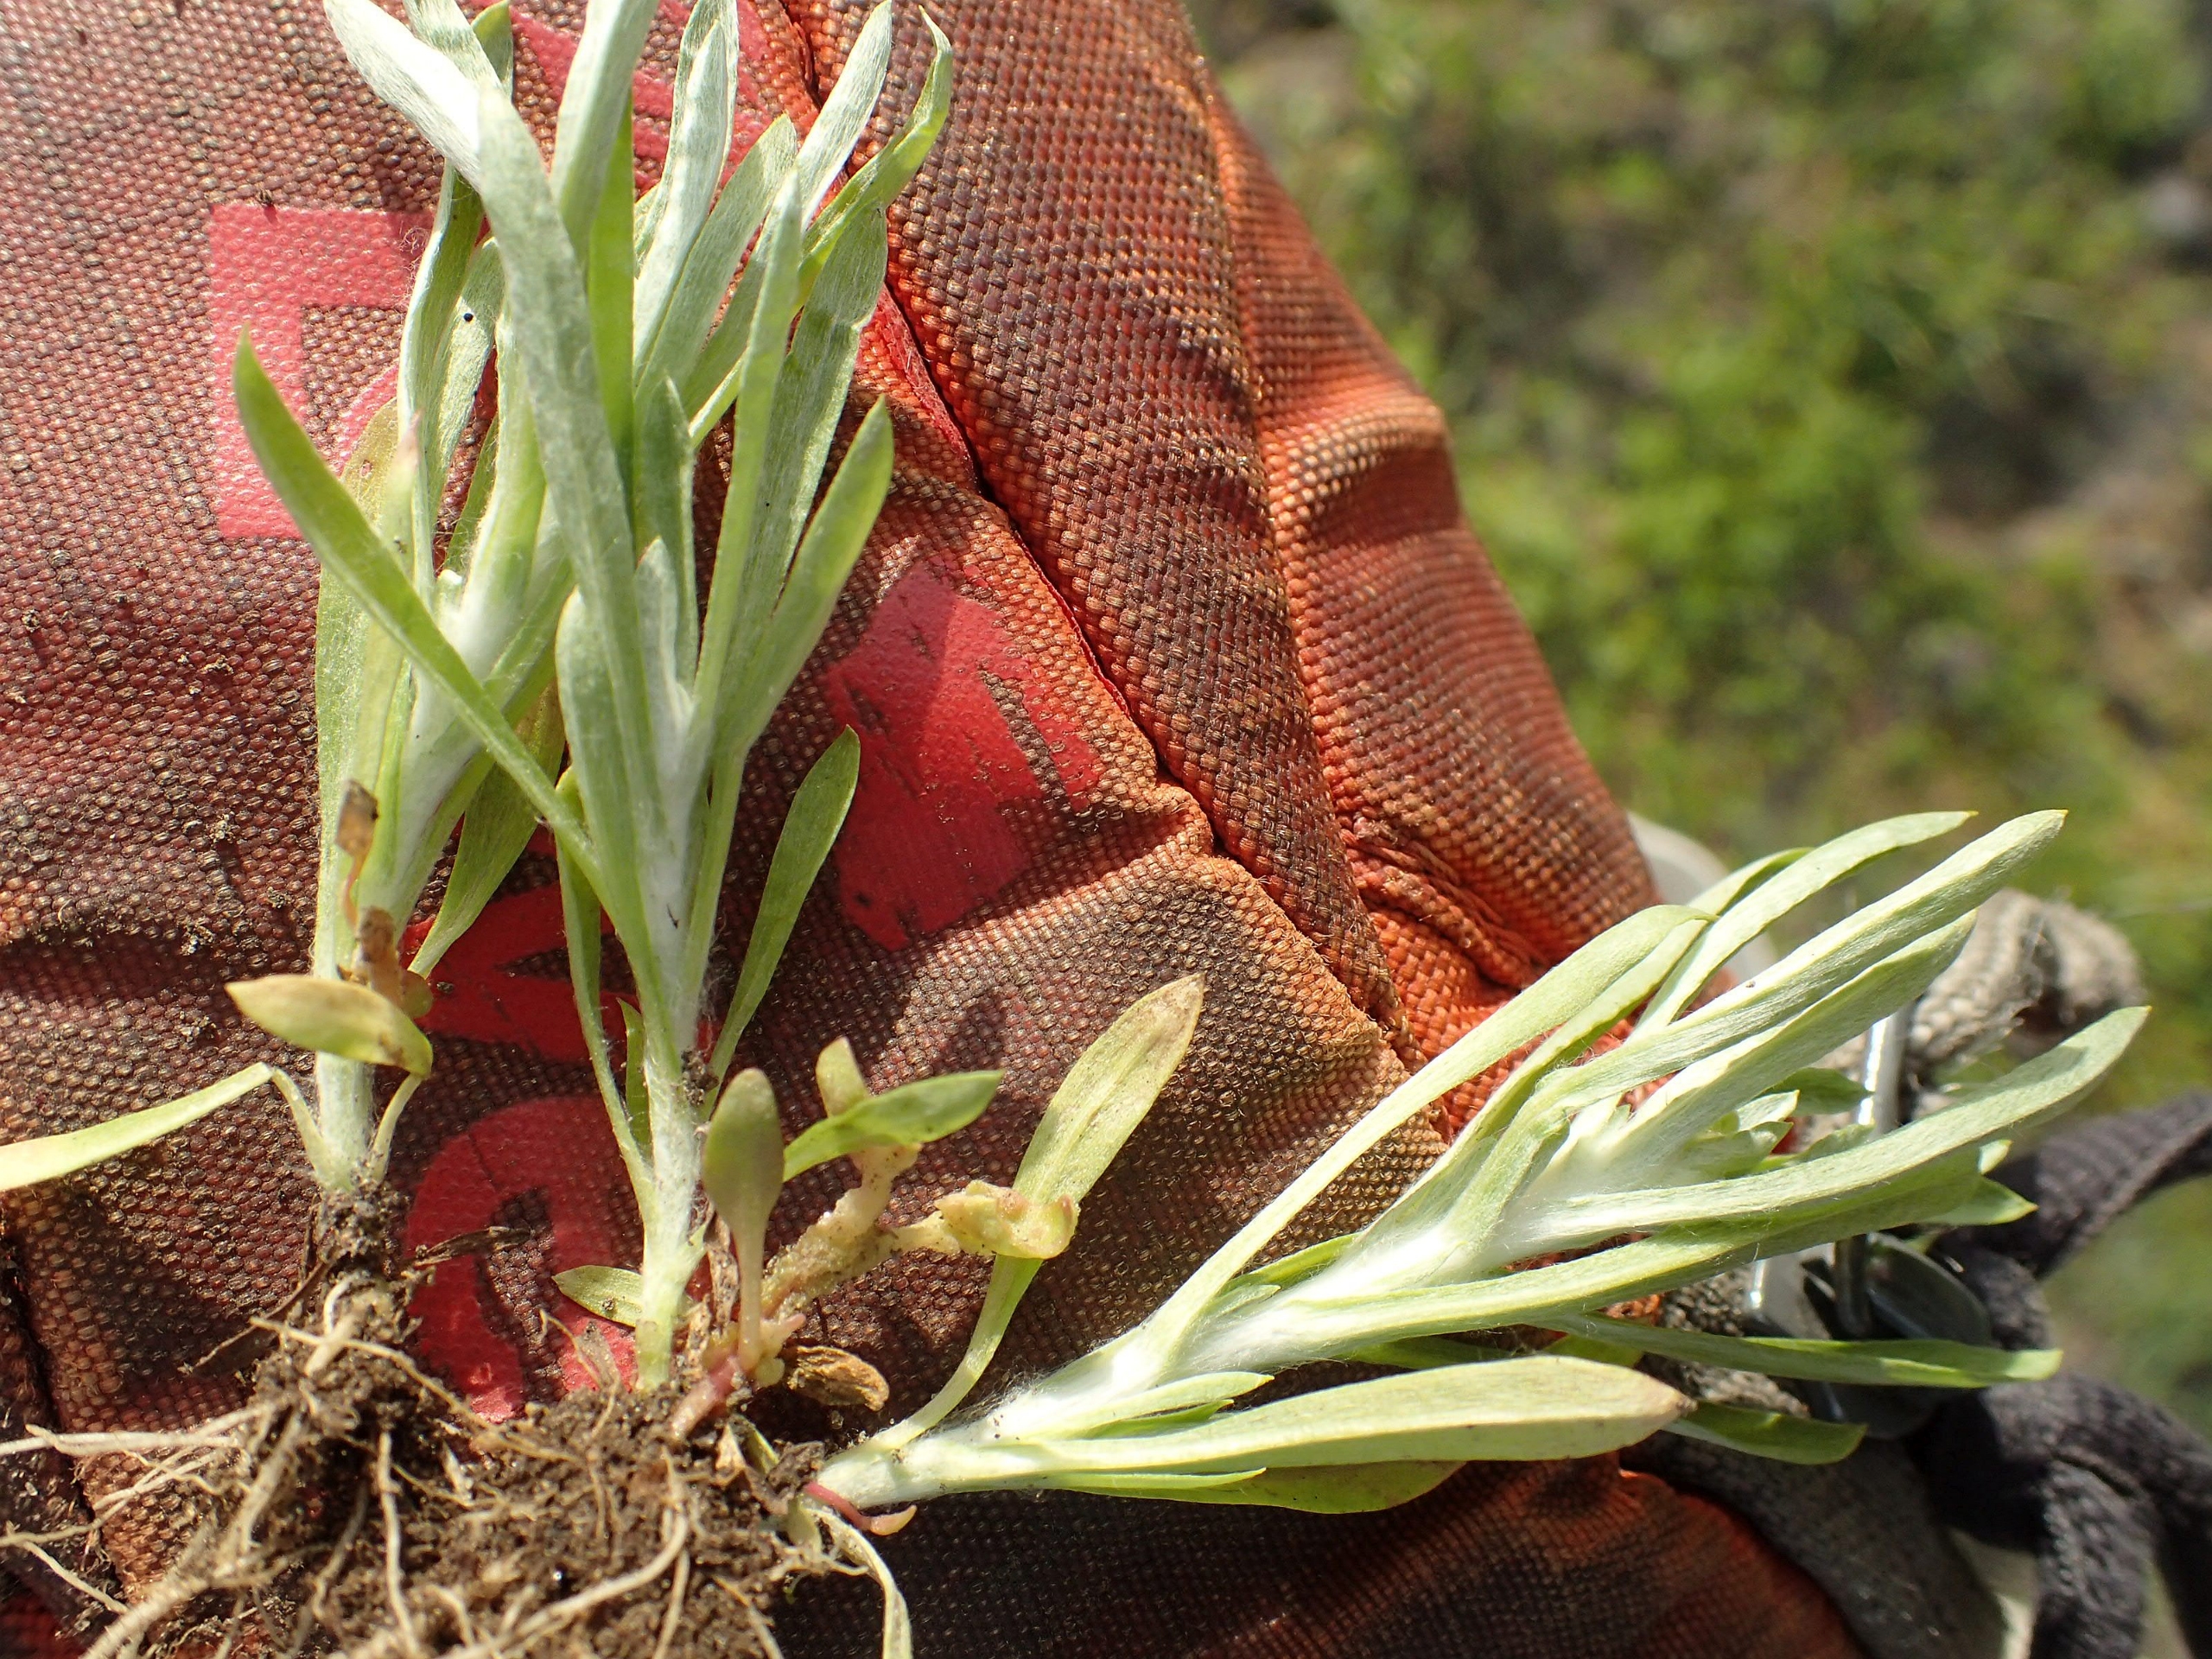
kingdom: Plantae
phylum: Tracheophyta
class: Magnoliopsida
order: Asterales
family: Asteraceae
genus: Gnaphalium
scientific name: Gnaphalium uliginosum
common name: Sump-evighedsblomst
